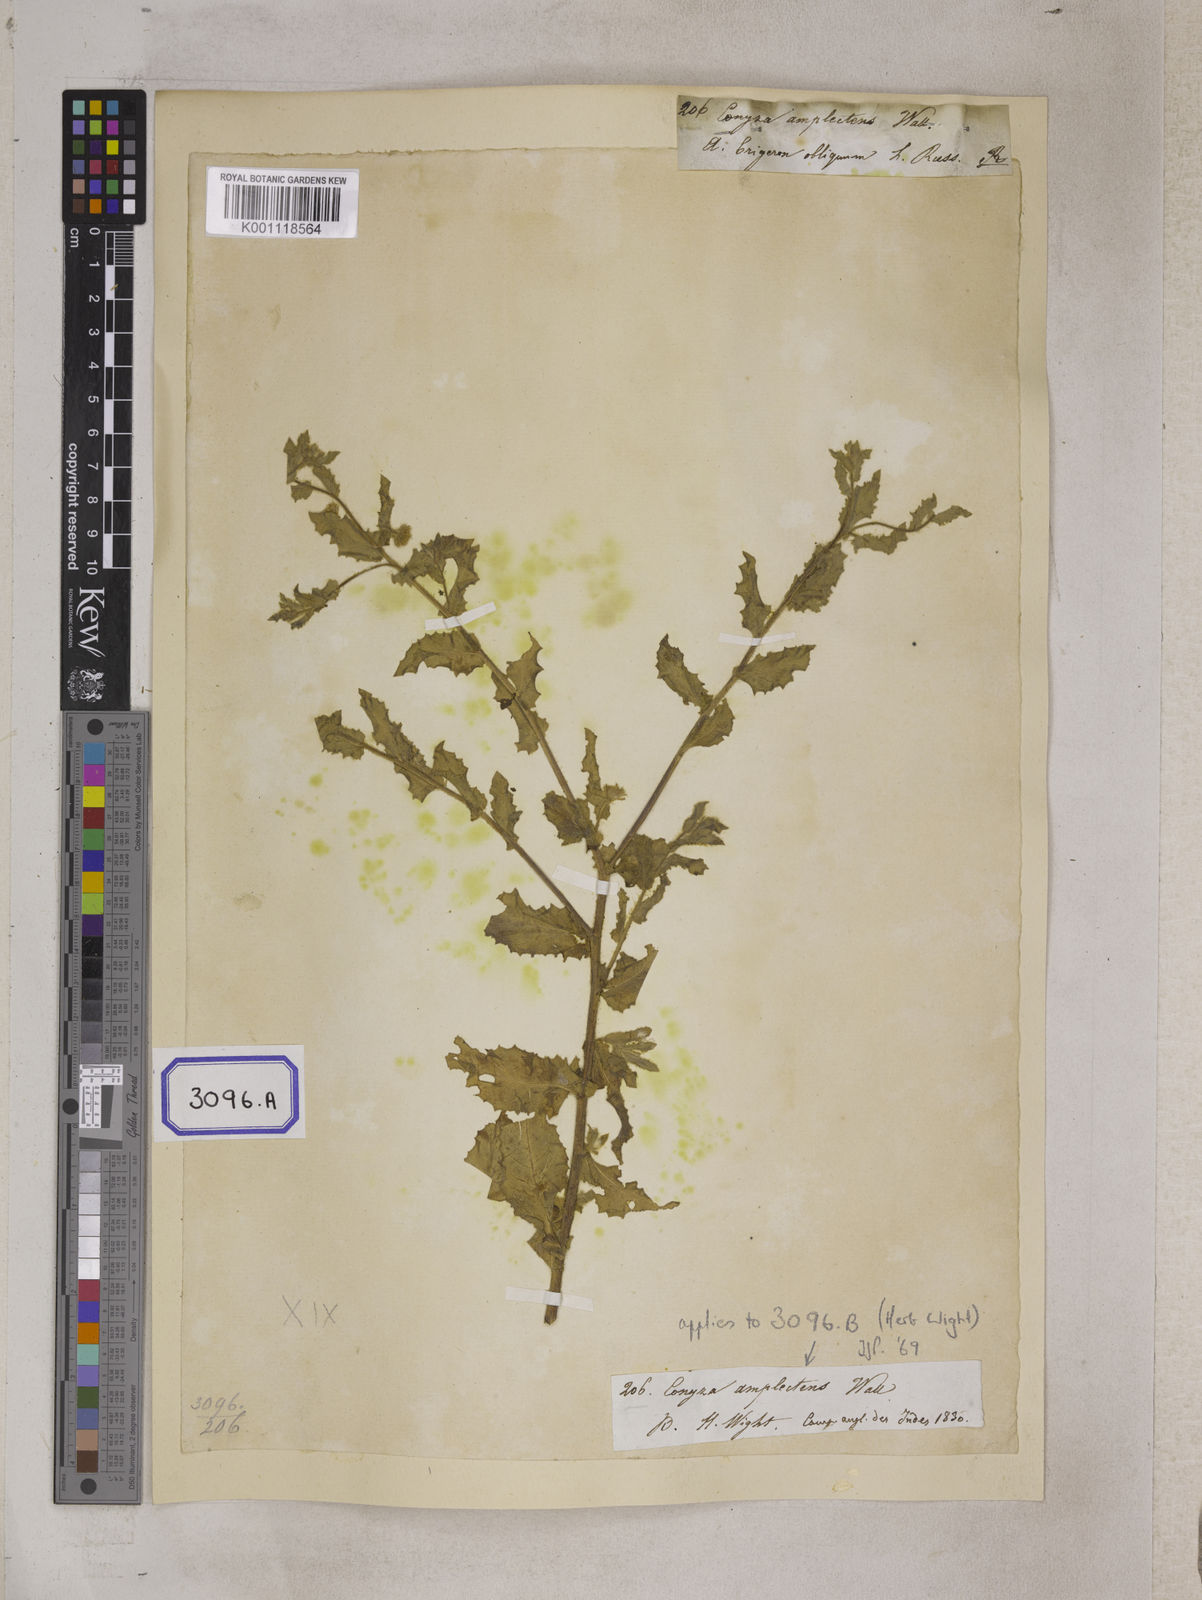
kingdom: Plantae
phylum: Tracheophyta
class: Magnoliopsida
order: Asterales
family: Asteraceae
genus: Blumea
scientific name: Blumea obliqua
